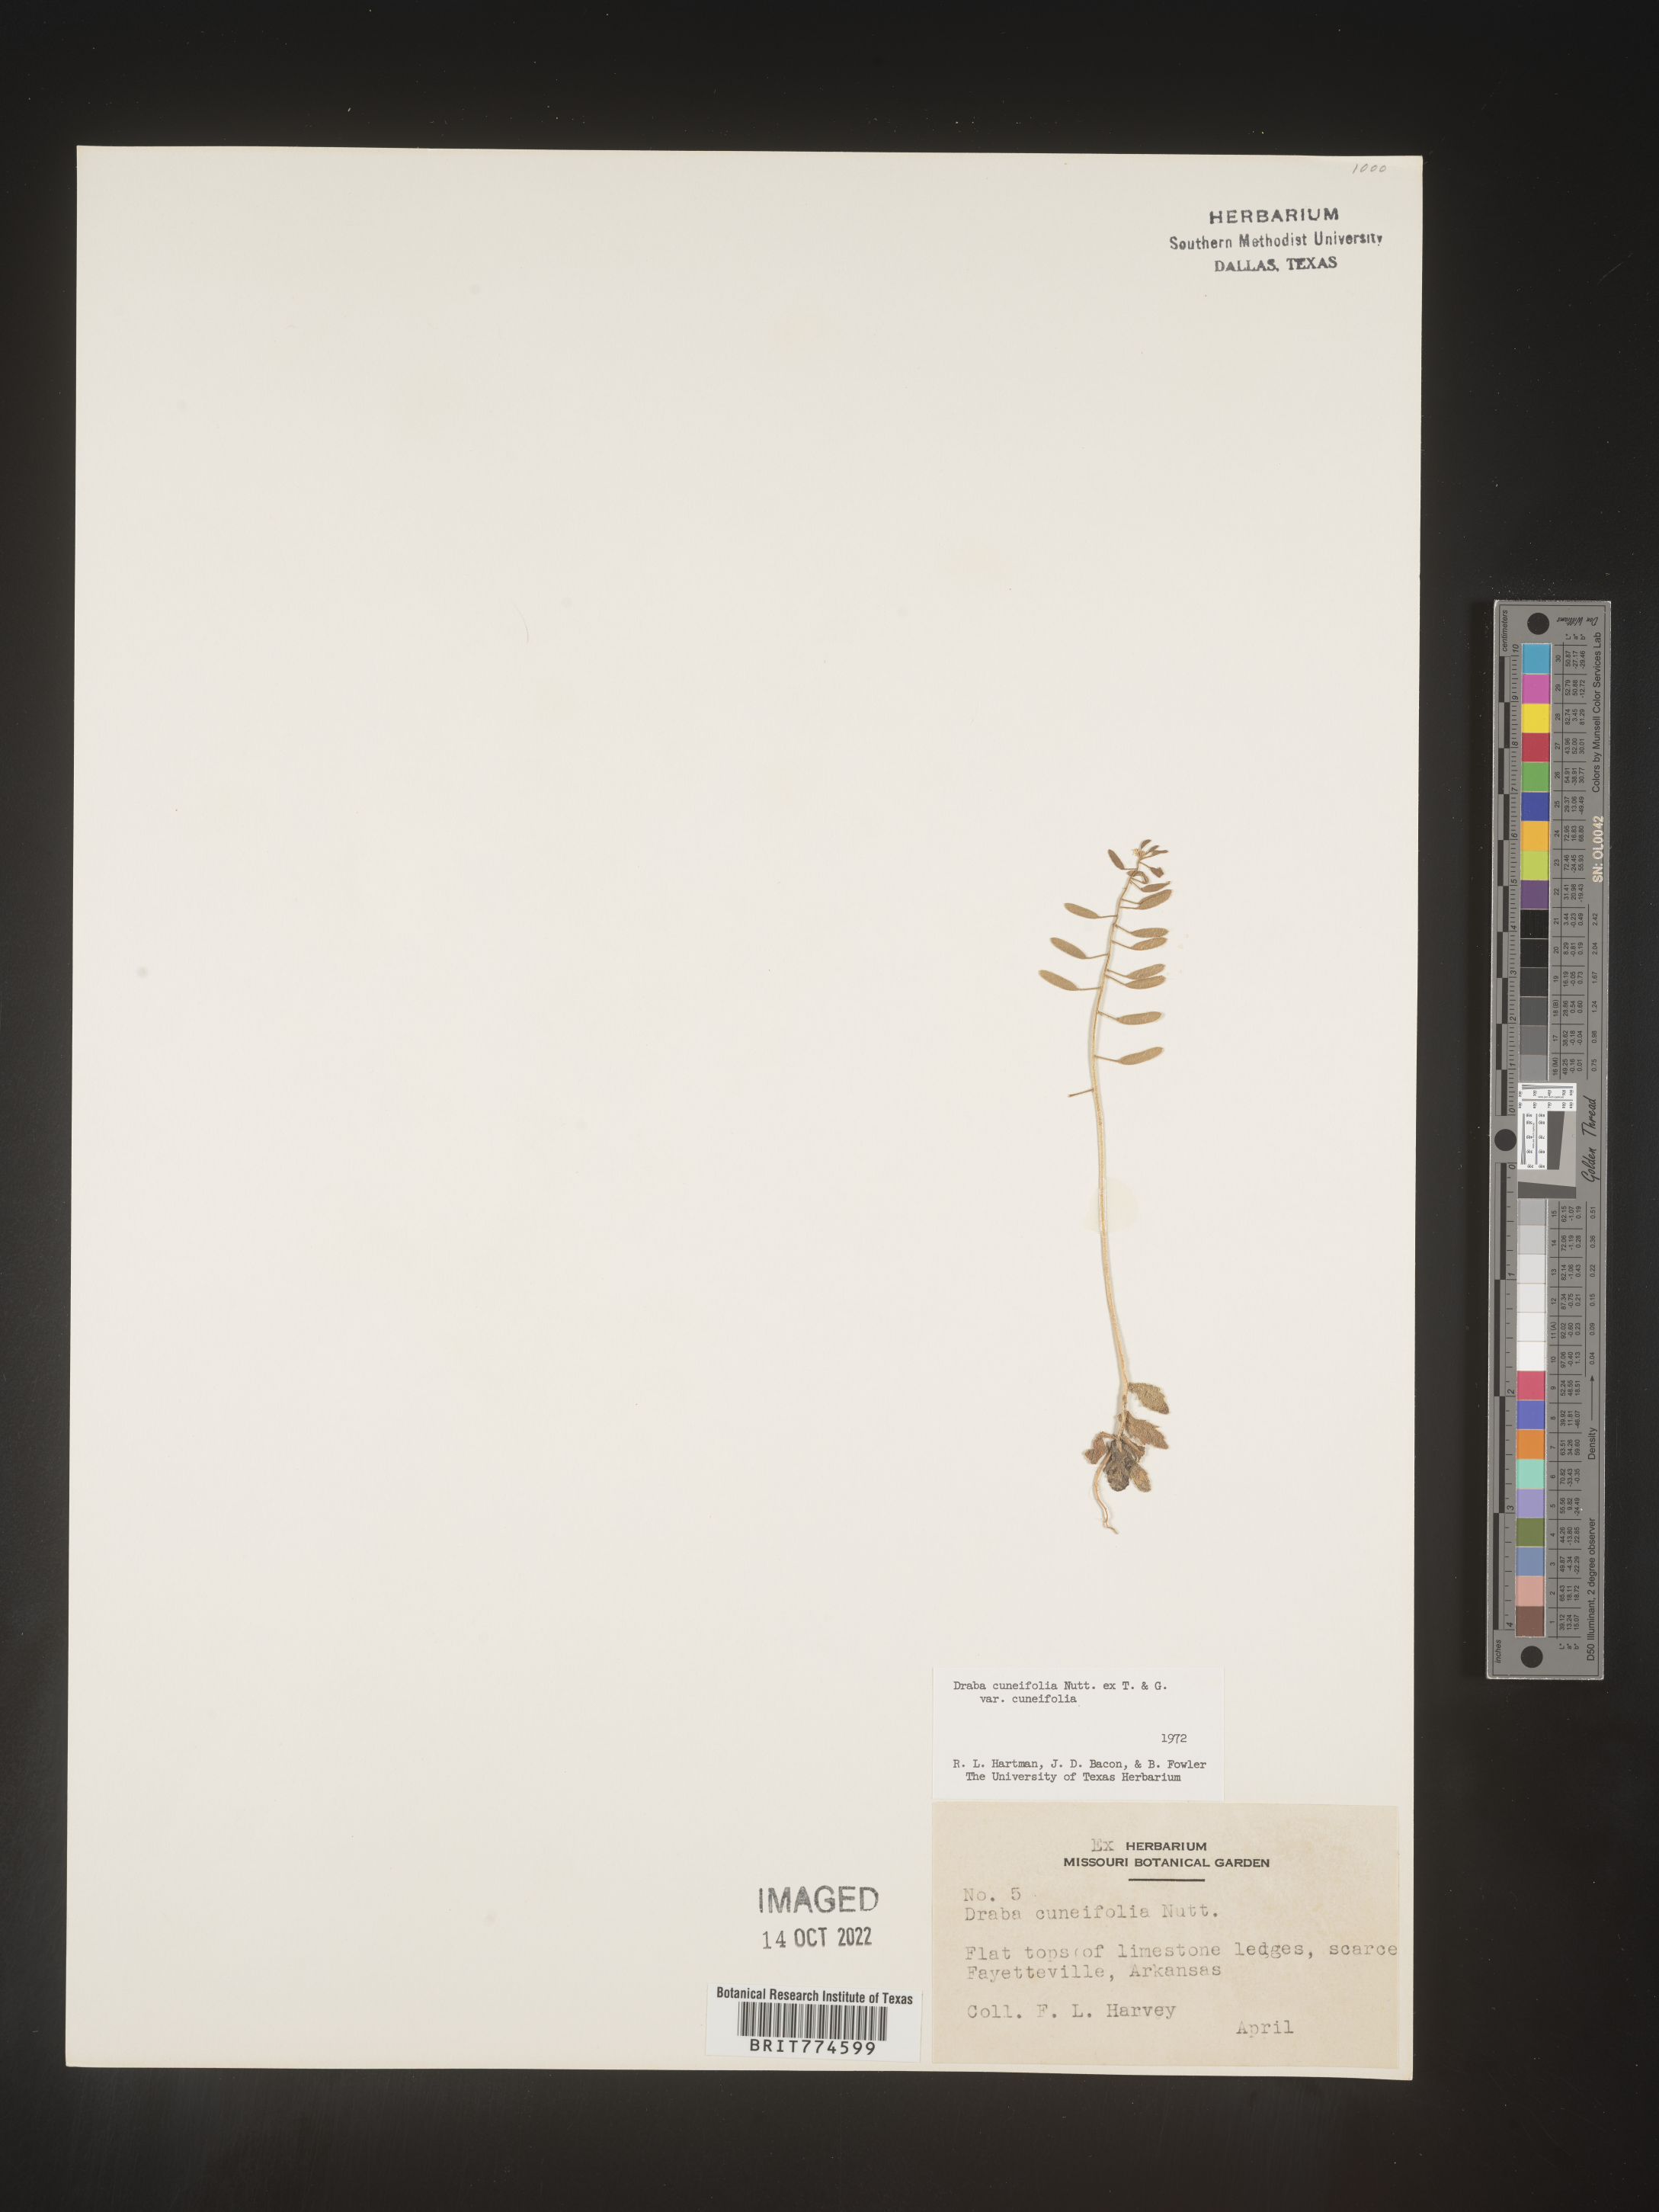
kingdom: Plantae
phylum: Tracheophyta
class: Magnoliopsida
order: Brassicales
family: Brassicaceae
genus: Tomostima
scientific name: Tomostima cuneifolia
